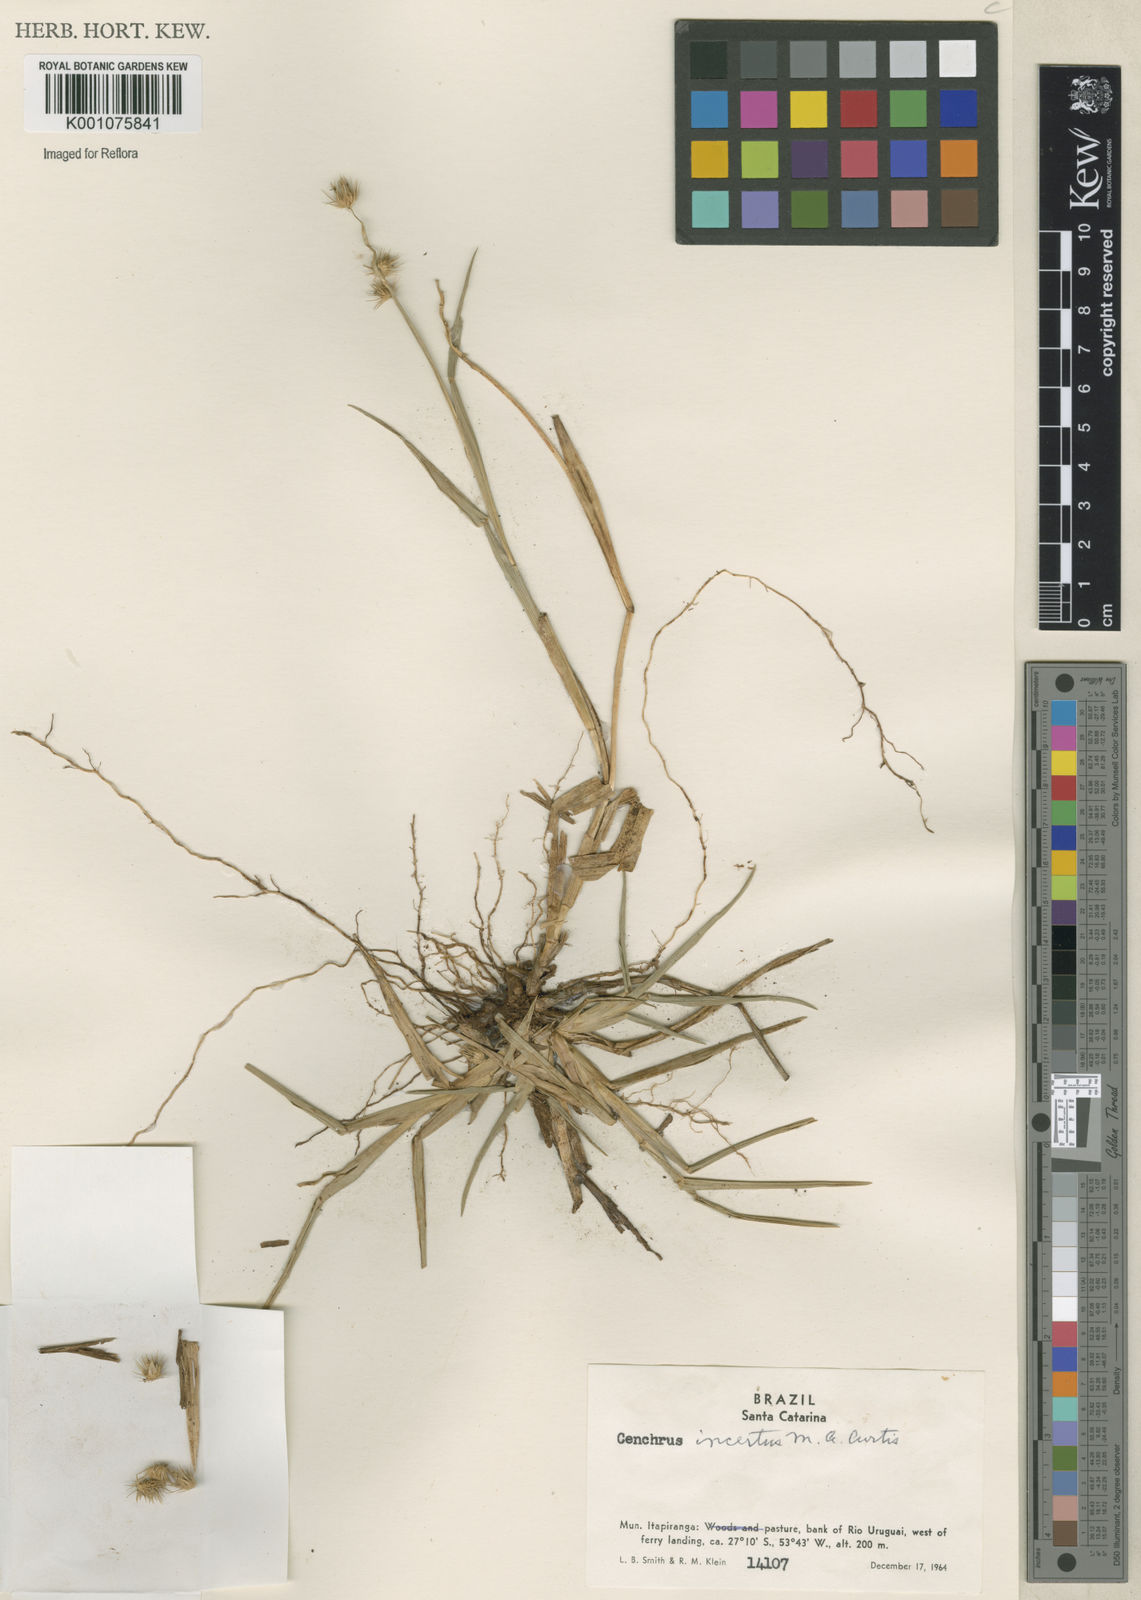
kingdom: Plantae
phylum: Tracheophyta
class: Liliopsida
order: Poales
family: Poaceae
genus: Cenchrus
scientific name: Cenchrus spinifex
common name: Coast sandbur
